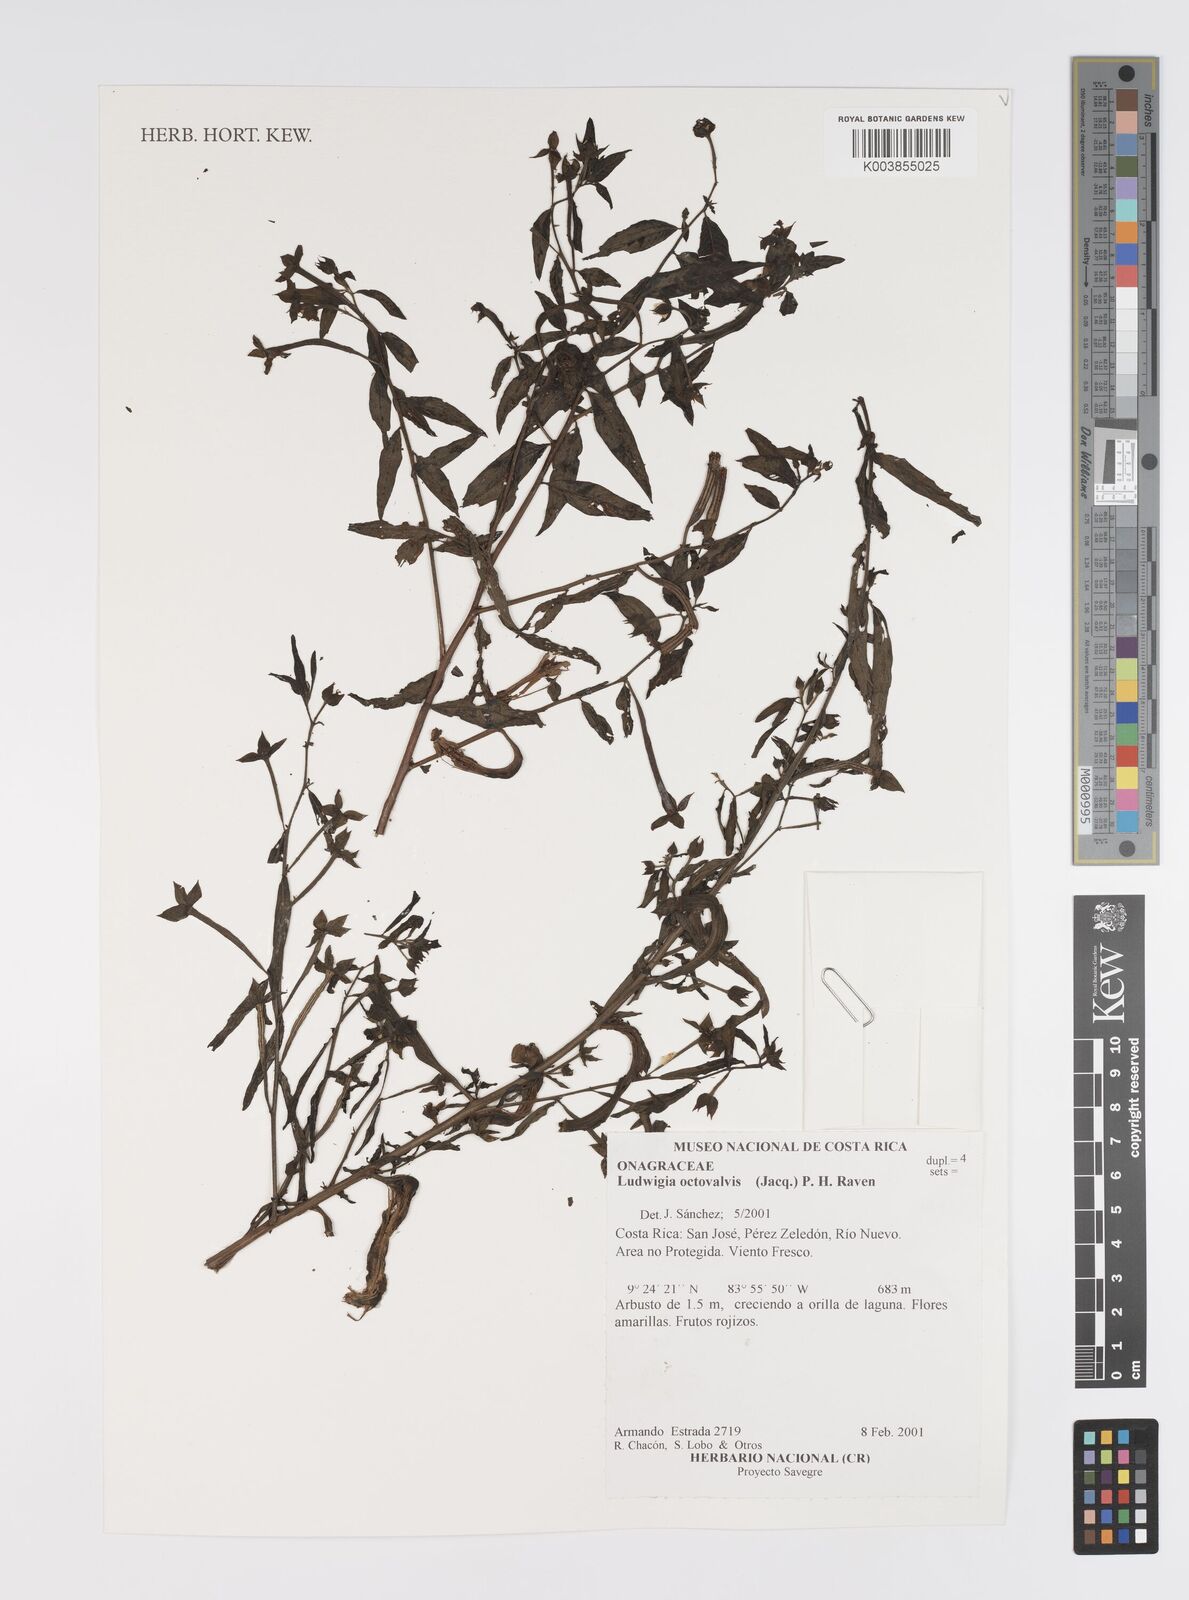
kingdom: Plantae
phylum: Tracheophyta
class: Magnoliopsida
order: Myrtales
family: Onagraceae
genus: Ludwigia
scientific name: Ludwigia octovalvis
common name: Water-primrose
